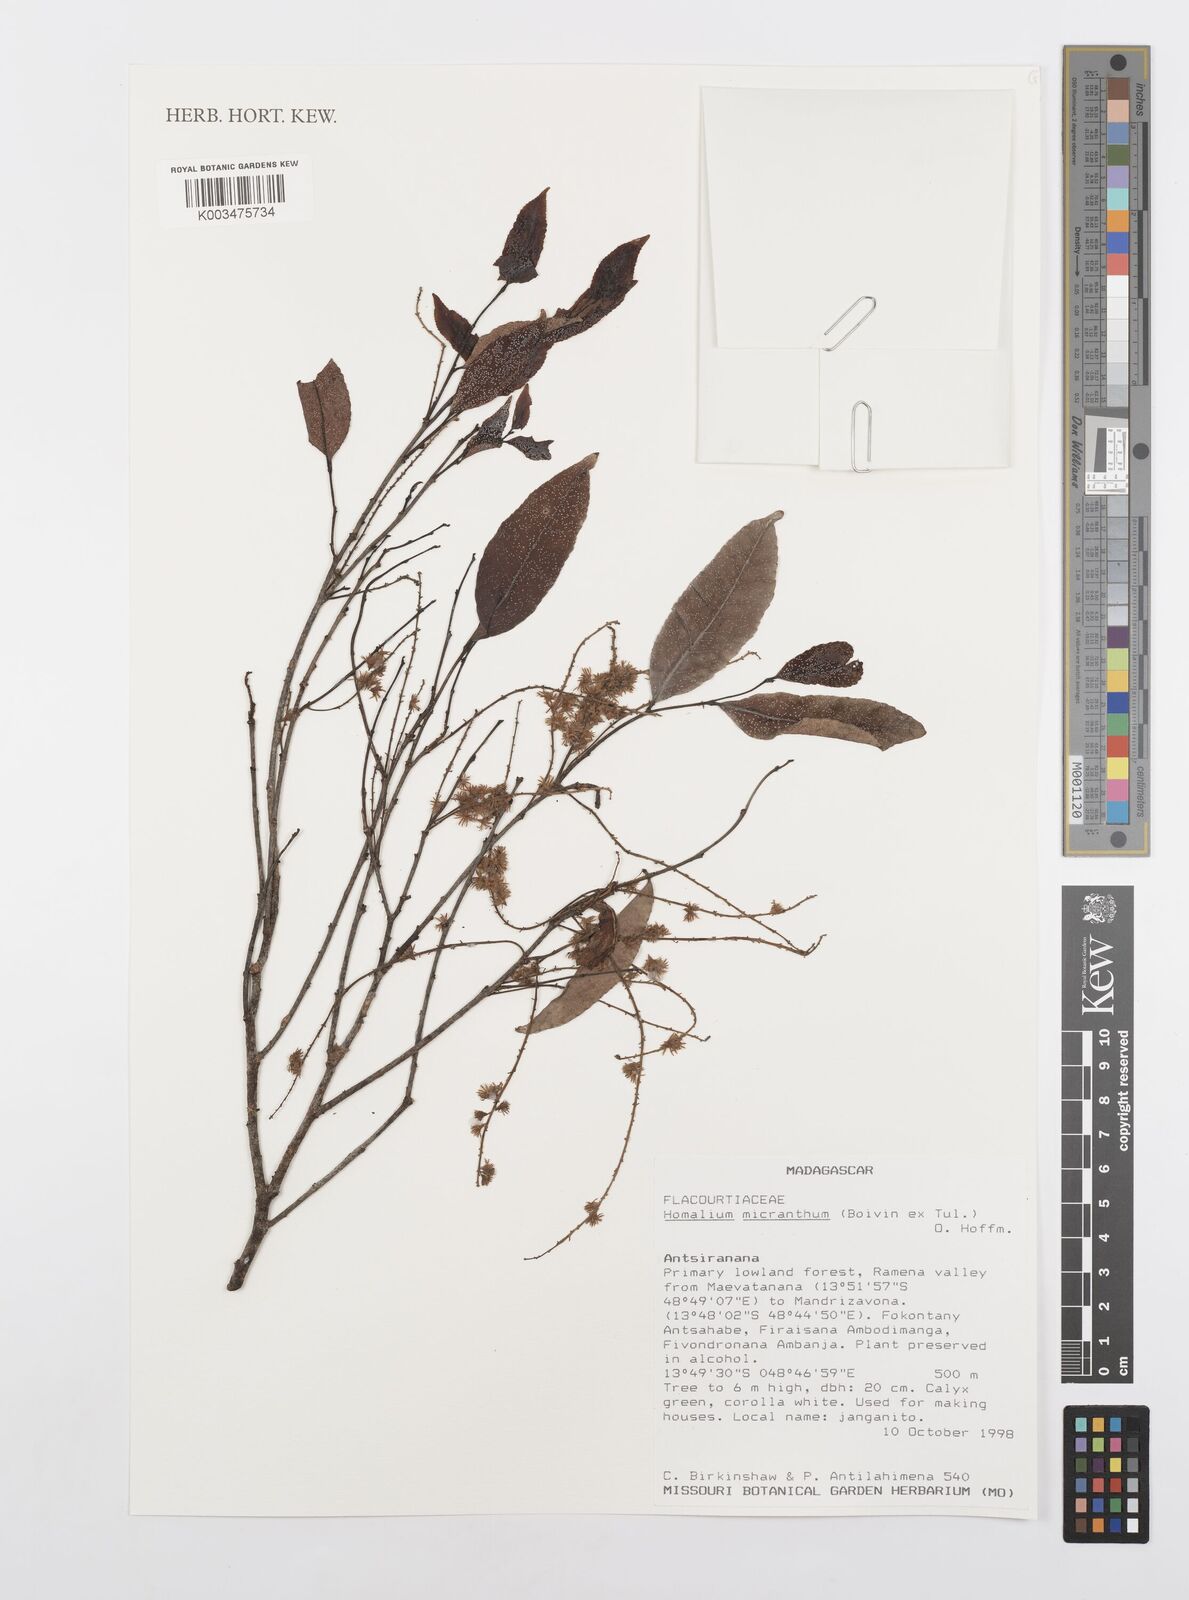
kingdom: Plantae
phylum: Tracheophyta
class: Magnoliopsida
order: Malpighiales
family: Salicaceae
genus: Homalium
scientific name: Homalium micranthum
